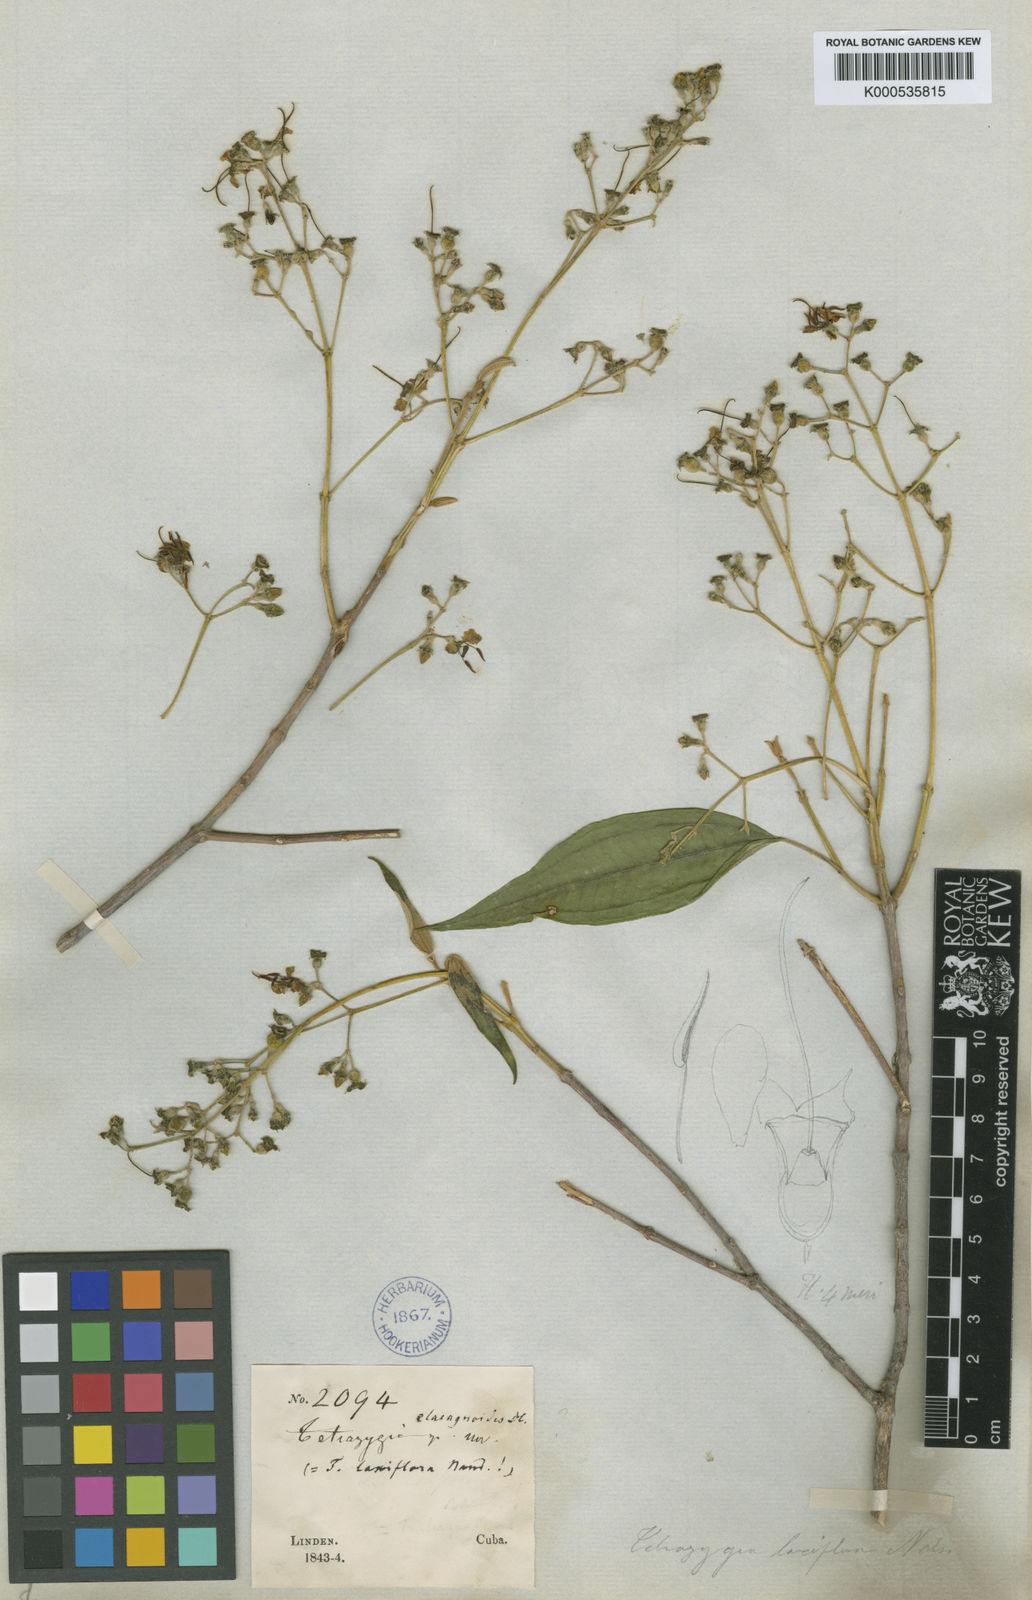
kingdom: Plantae
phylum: Tracheophyta
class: Magnoliopsida
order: Myrtales
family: Melastomataceae
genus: Miconia
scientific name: Miconia rangeliana
